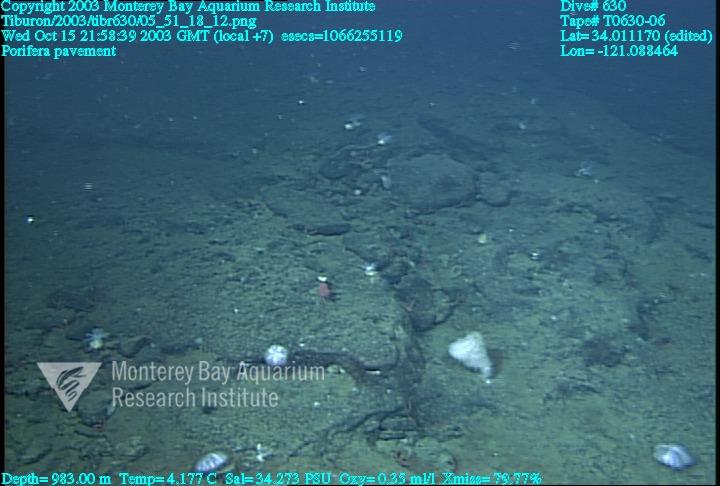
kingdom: Animalia
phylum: Porifera
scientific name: Porifera
